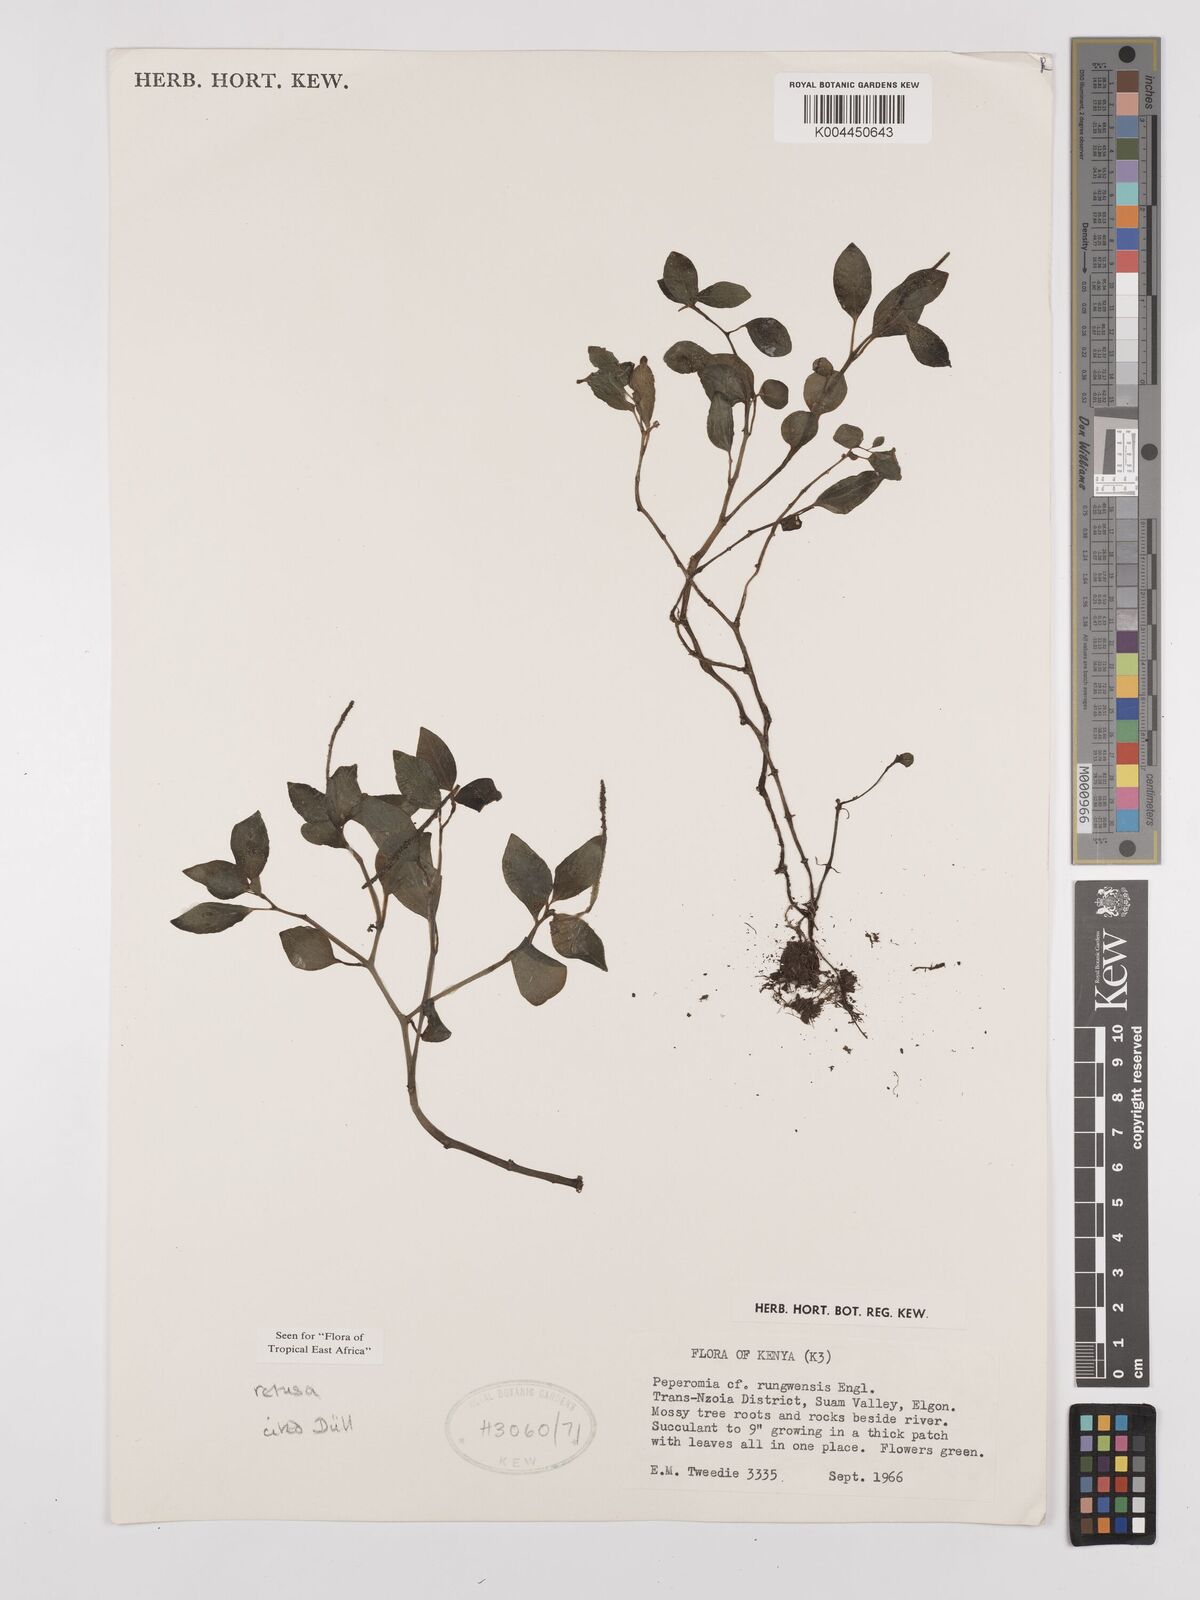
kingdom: Plantae
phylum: Tracheophyta
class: Magnoliopsida
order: Piperales
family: Piperaceae
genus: Peperomia
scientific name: Peperomia retusa
